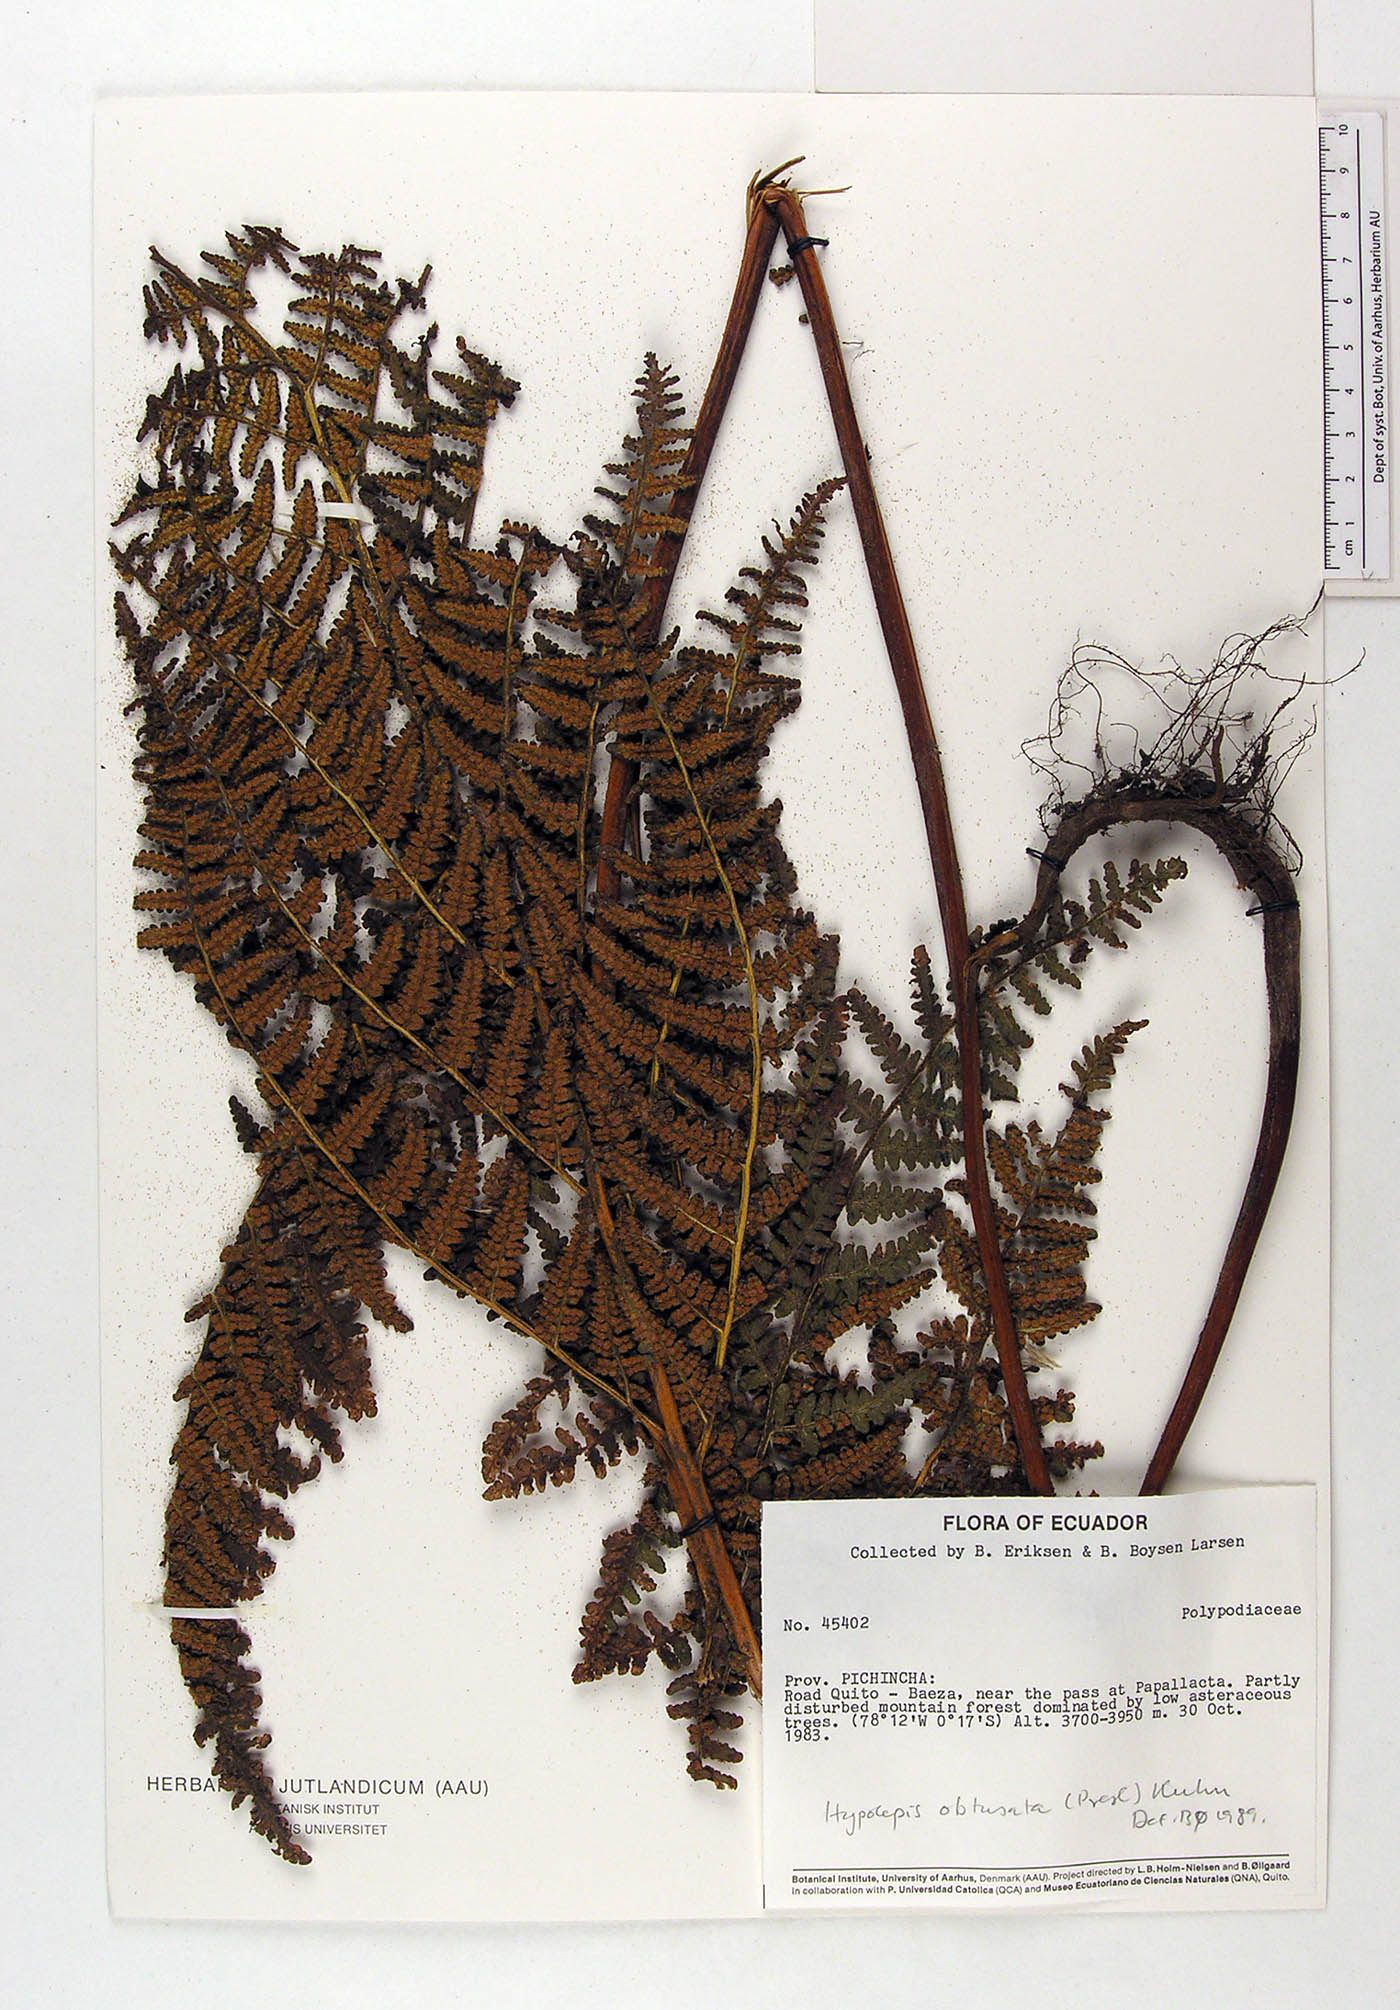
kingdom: Plantae
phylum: Tracheophyta
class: Polypodiopsida
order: Polypodiales
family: Dennstaedtiaceae
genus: Hypolepis
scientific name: Hypolepis obtusata
